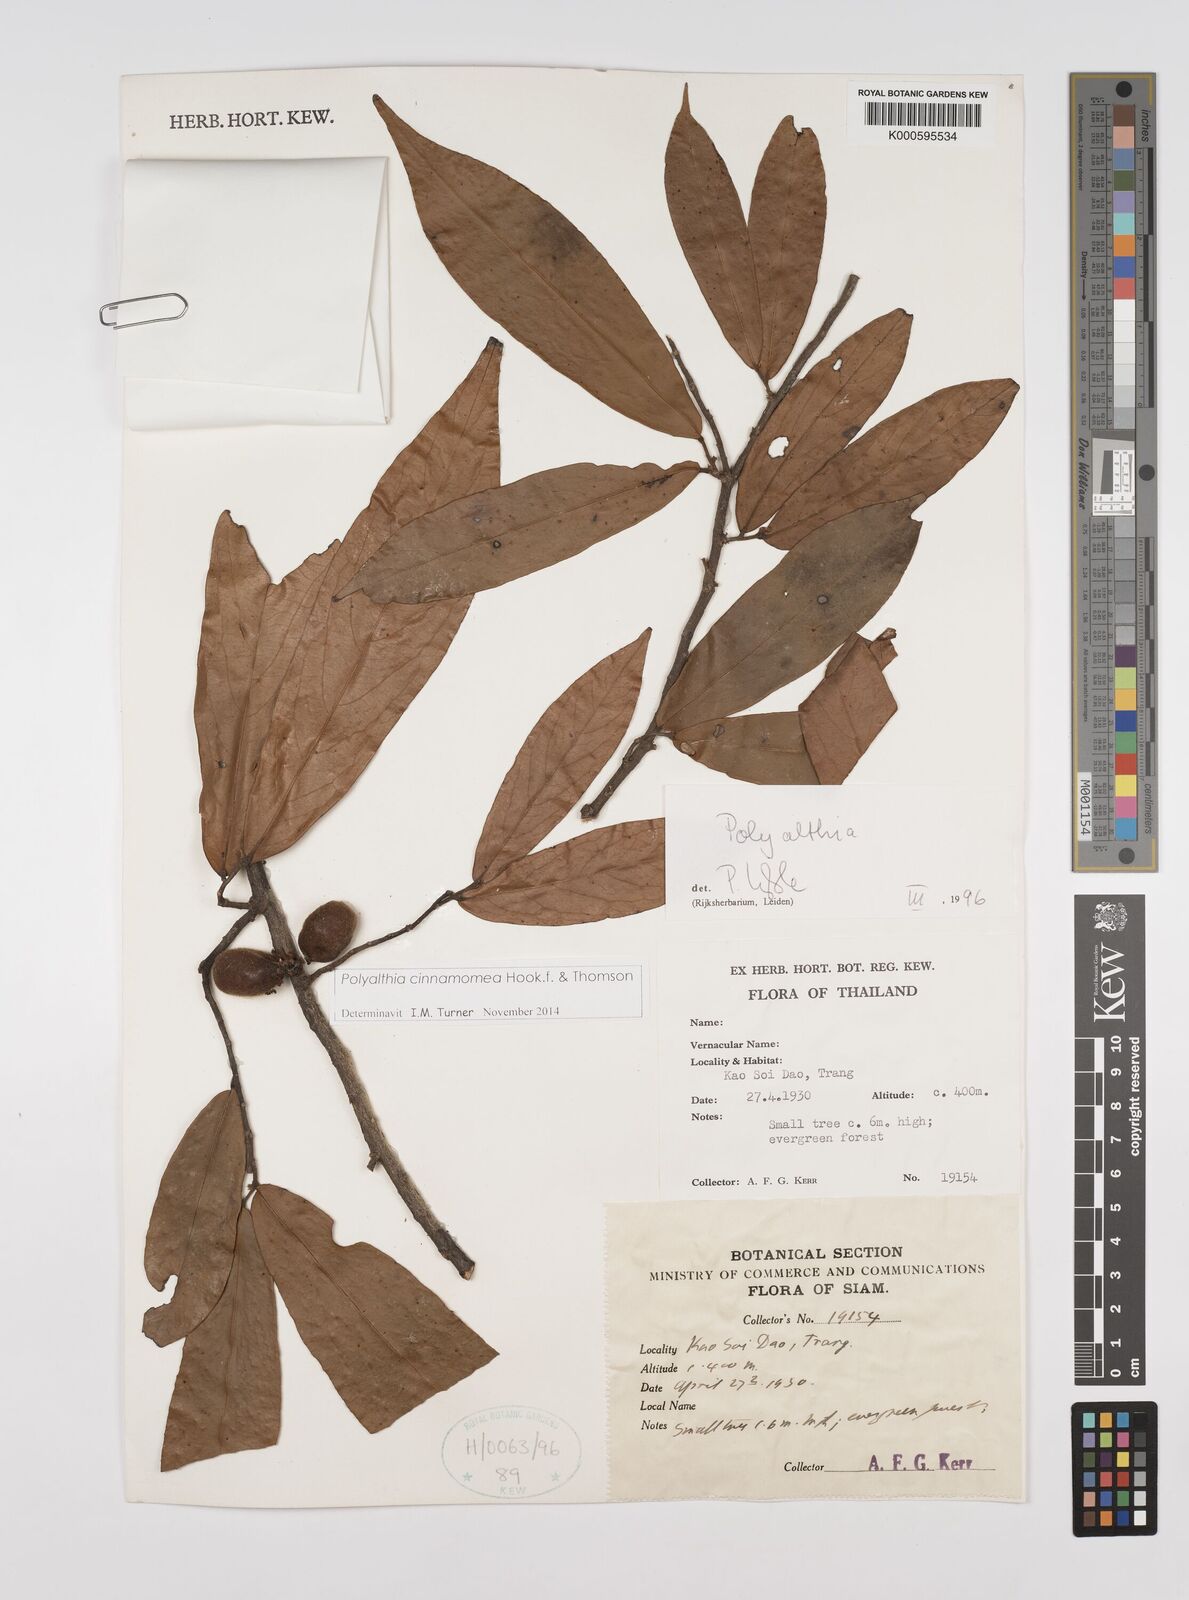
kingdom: Plantae
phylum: Tracheophyta
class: Magnoliopsida
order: Magnoliales
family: Annonaceae
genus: Polyalthia
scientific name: Polyalthia
